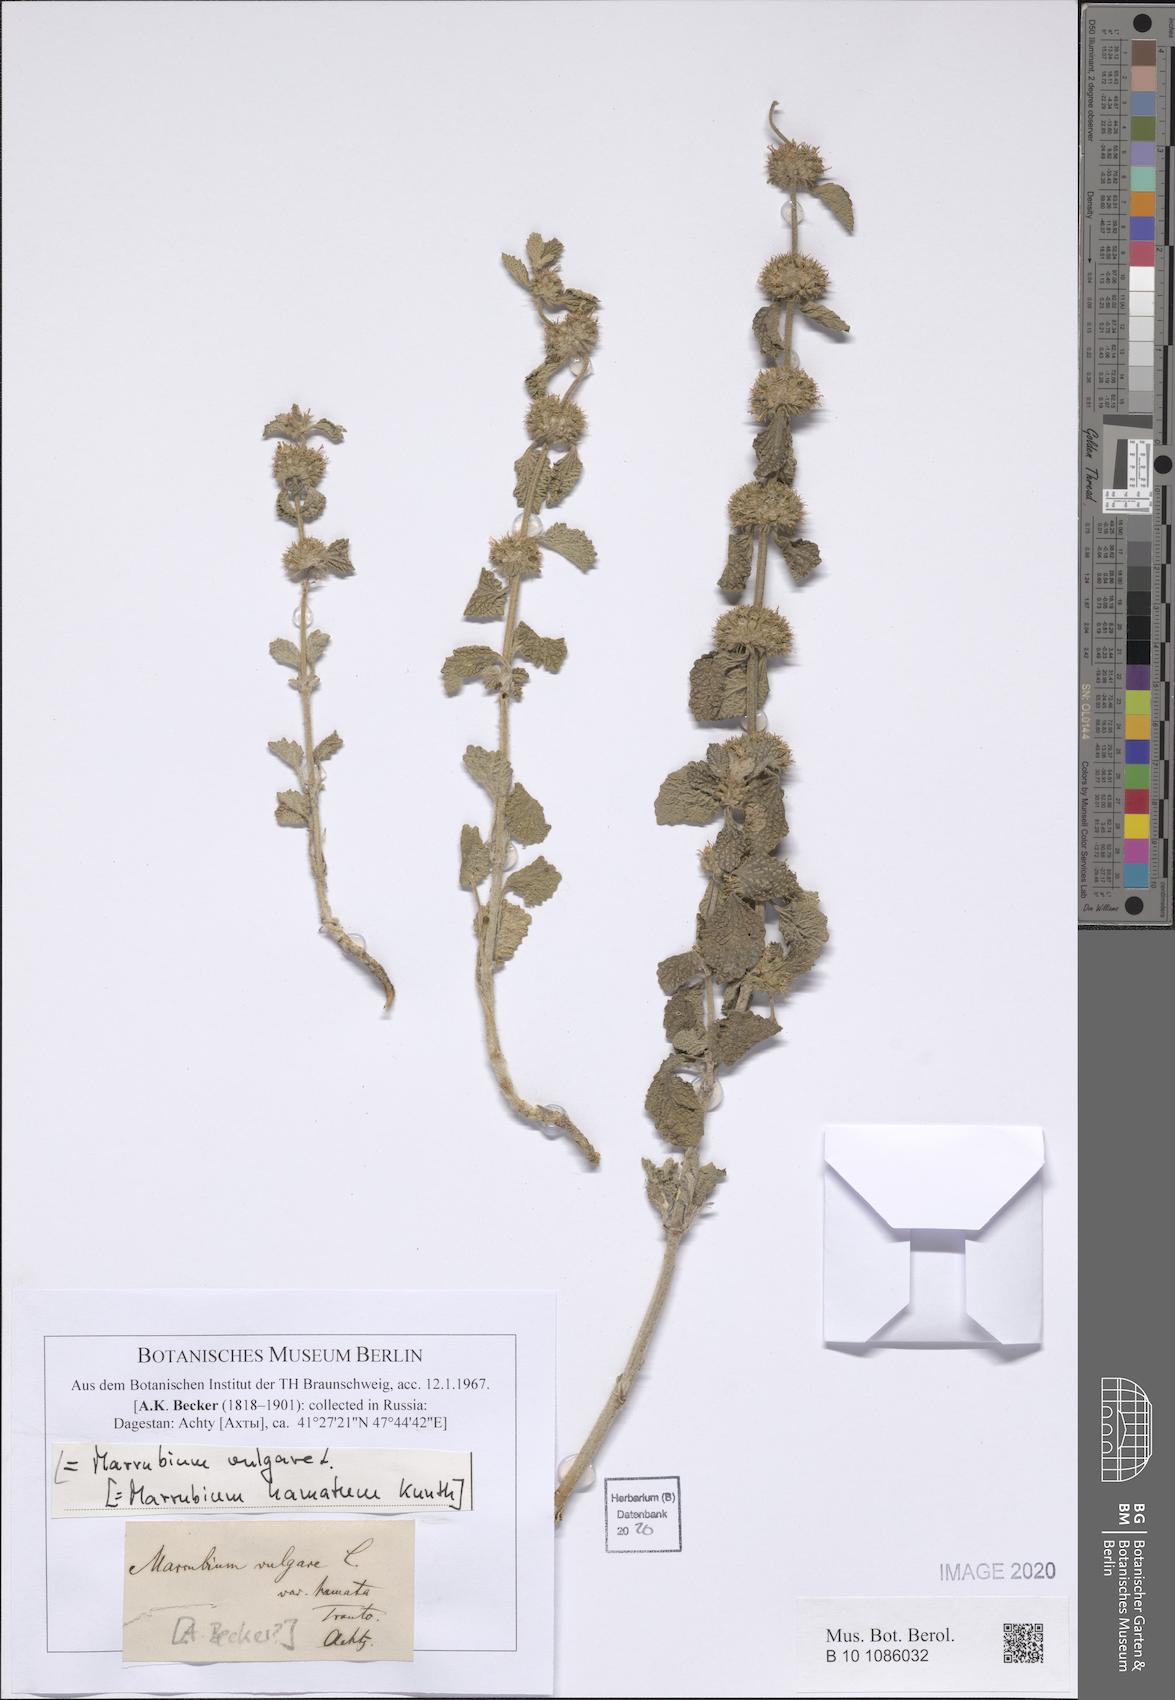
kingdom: Plantae
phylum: Tracheophyta
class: Magnoliopsida
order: Lamiales
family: Lamiaceae
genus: Marrubium
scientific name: Marrubium vulgare
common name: Horehound
